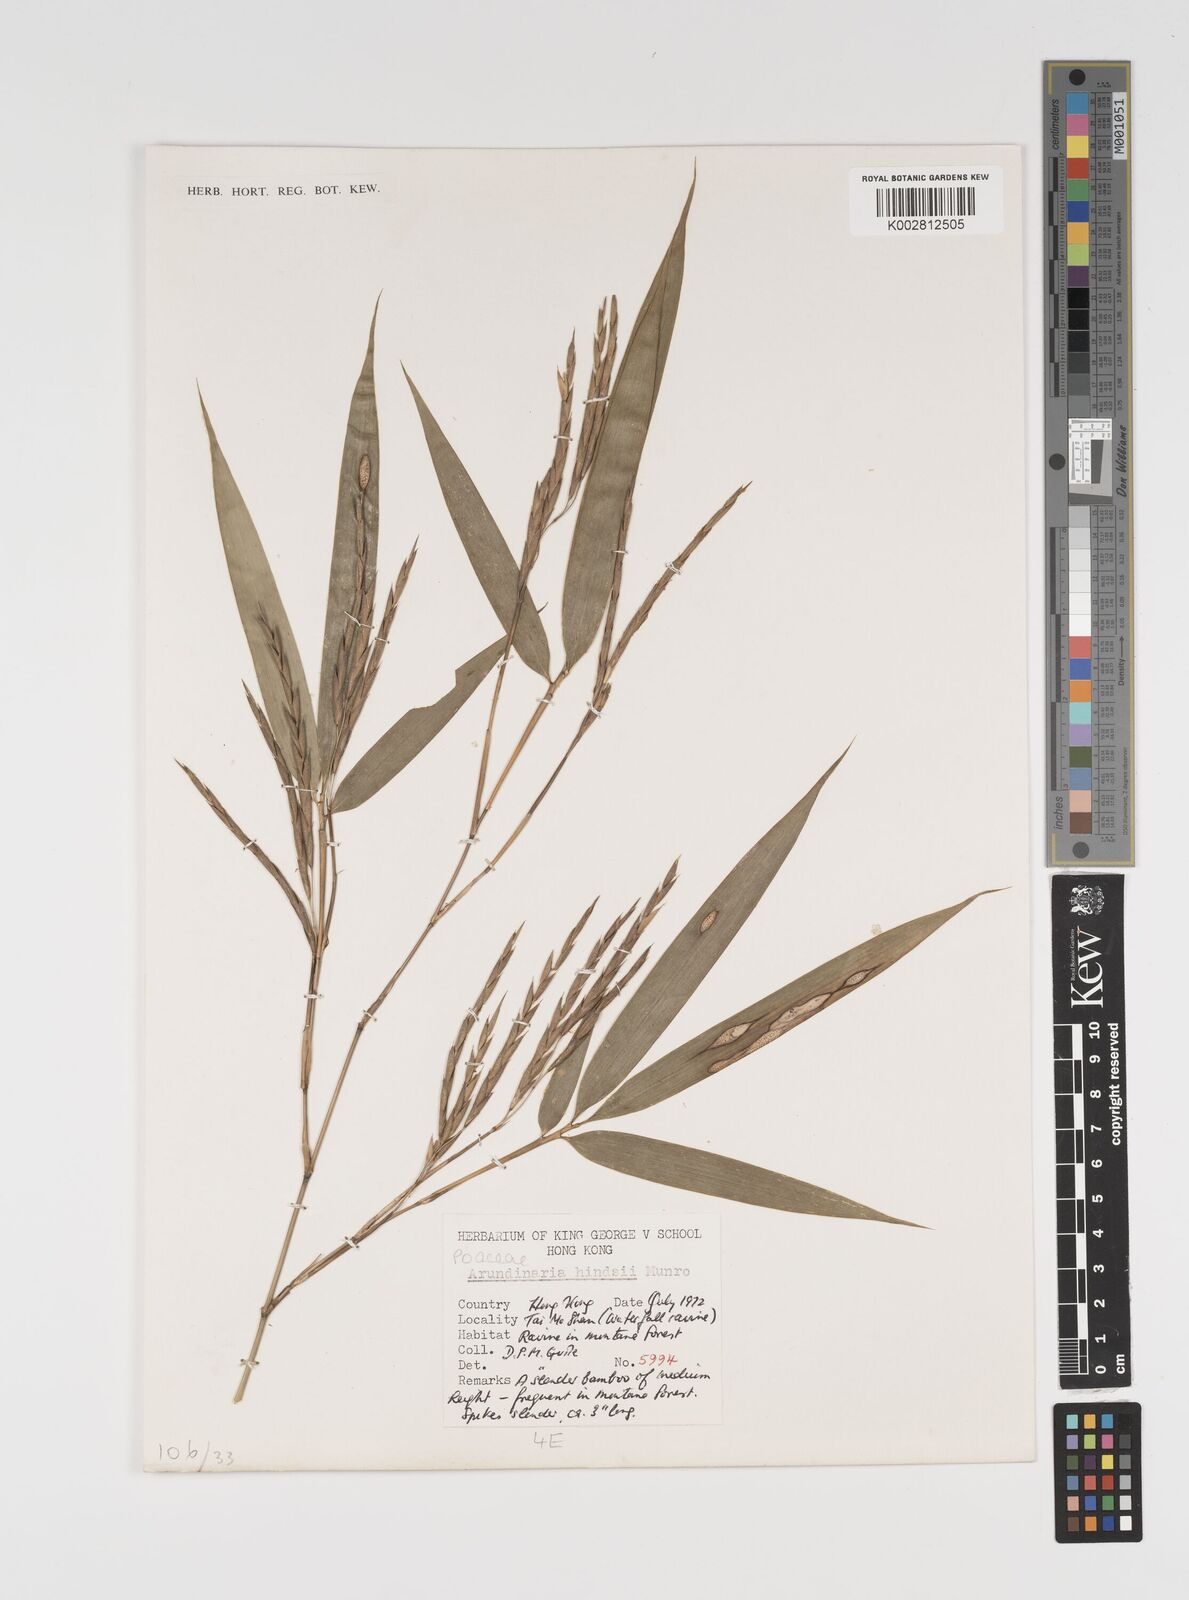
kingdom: Plantae
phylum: Tracheophyta
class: Liliopsida
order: Poales
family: Poaceae
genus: Pseudosasa
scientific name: Pseudosasa hindsii
